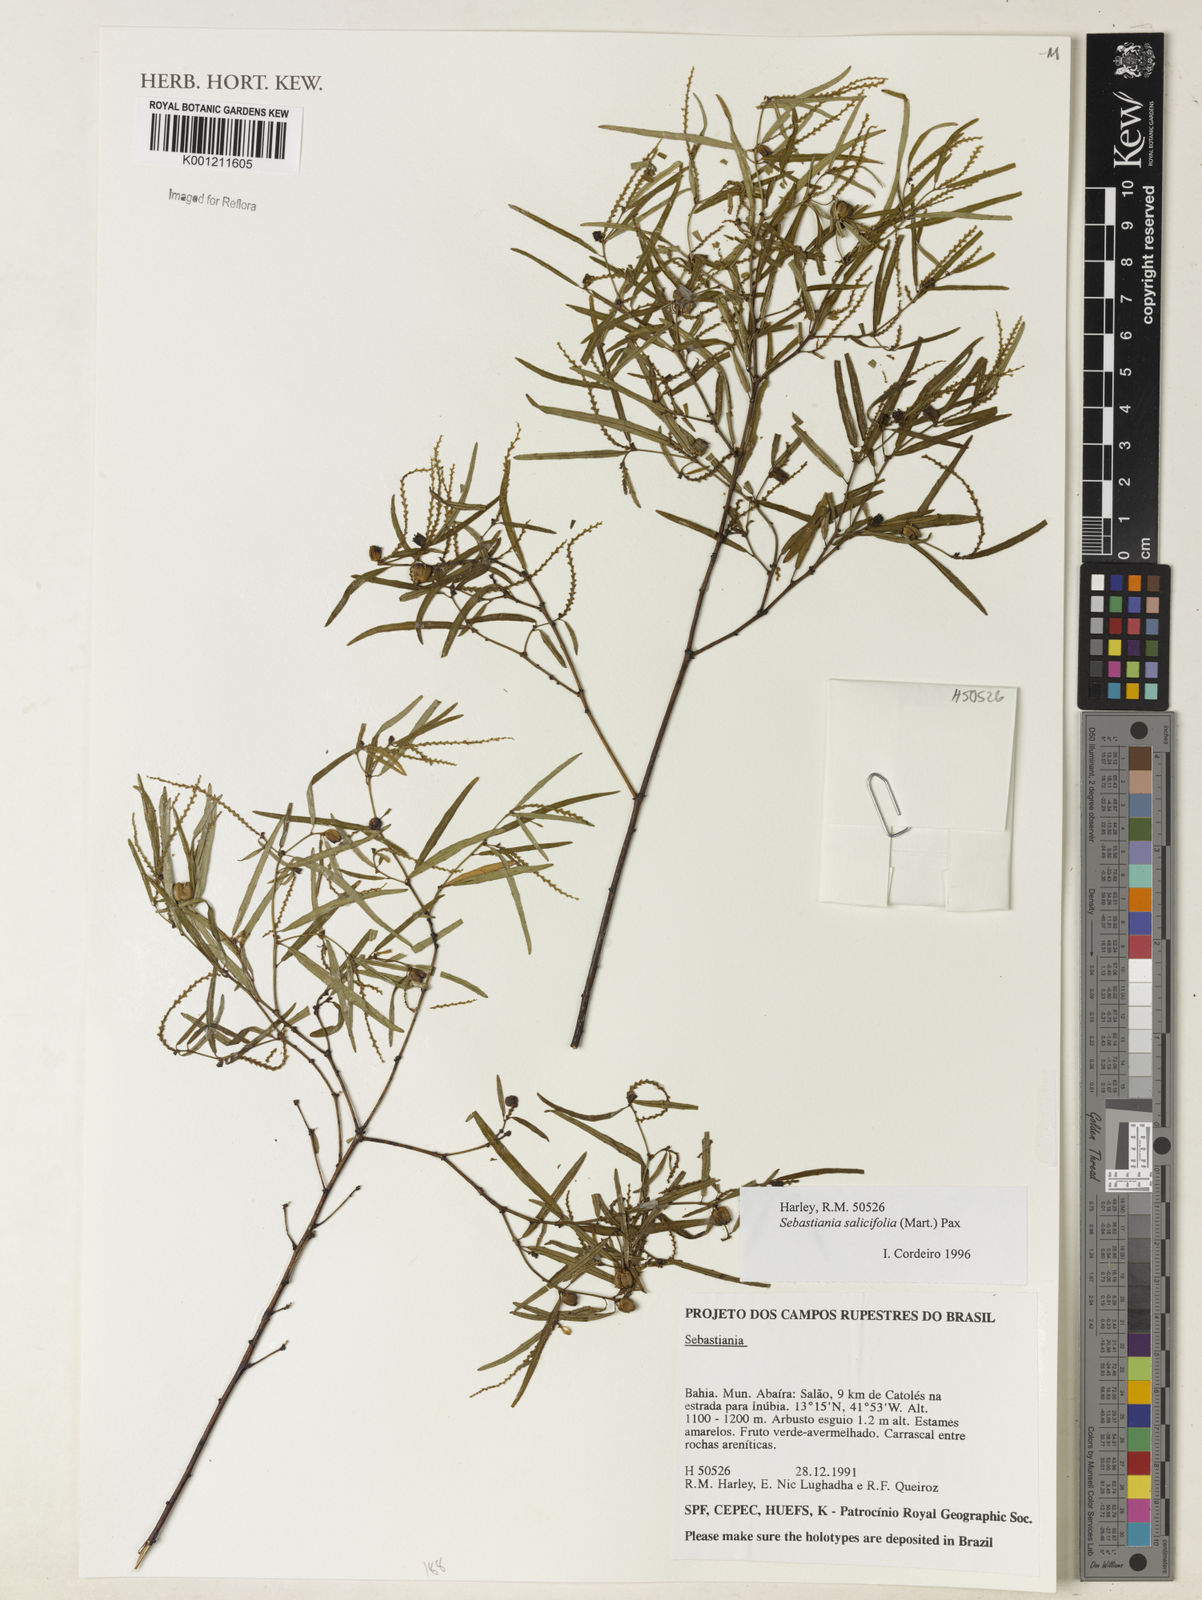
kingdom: Plantae
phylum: Tracheophyta
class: Magnoliopsida
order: Malpighiales
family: Euphorbiaceae
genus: Microstachys
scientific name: Microstachys
